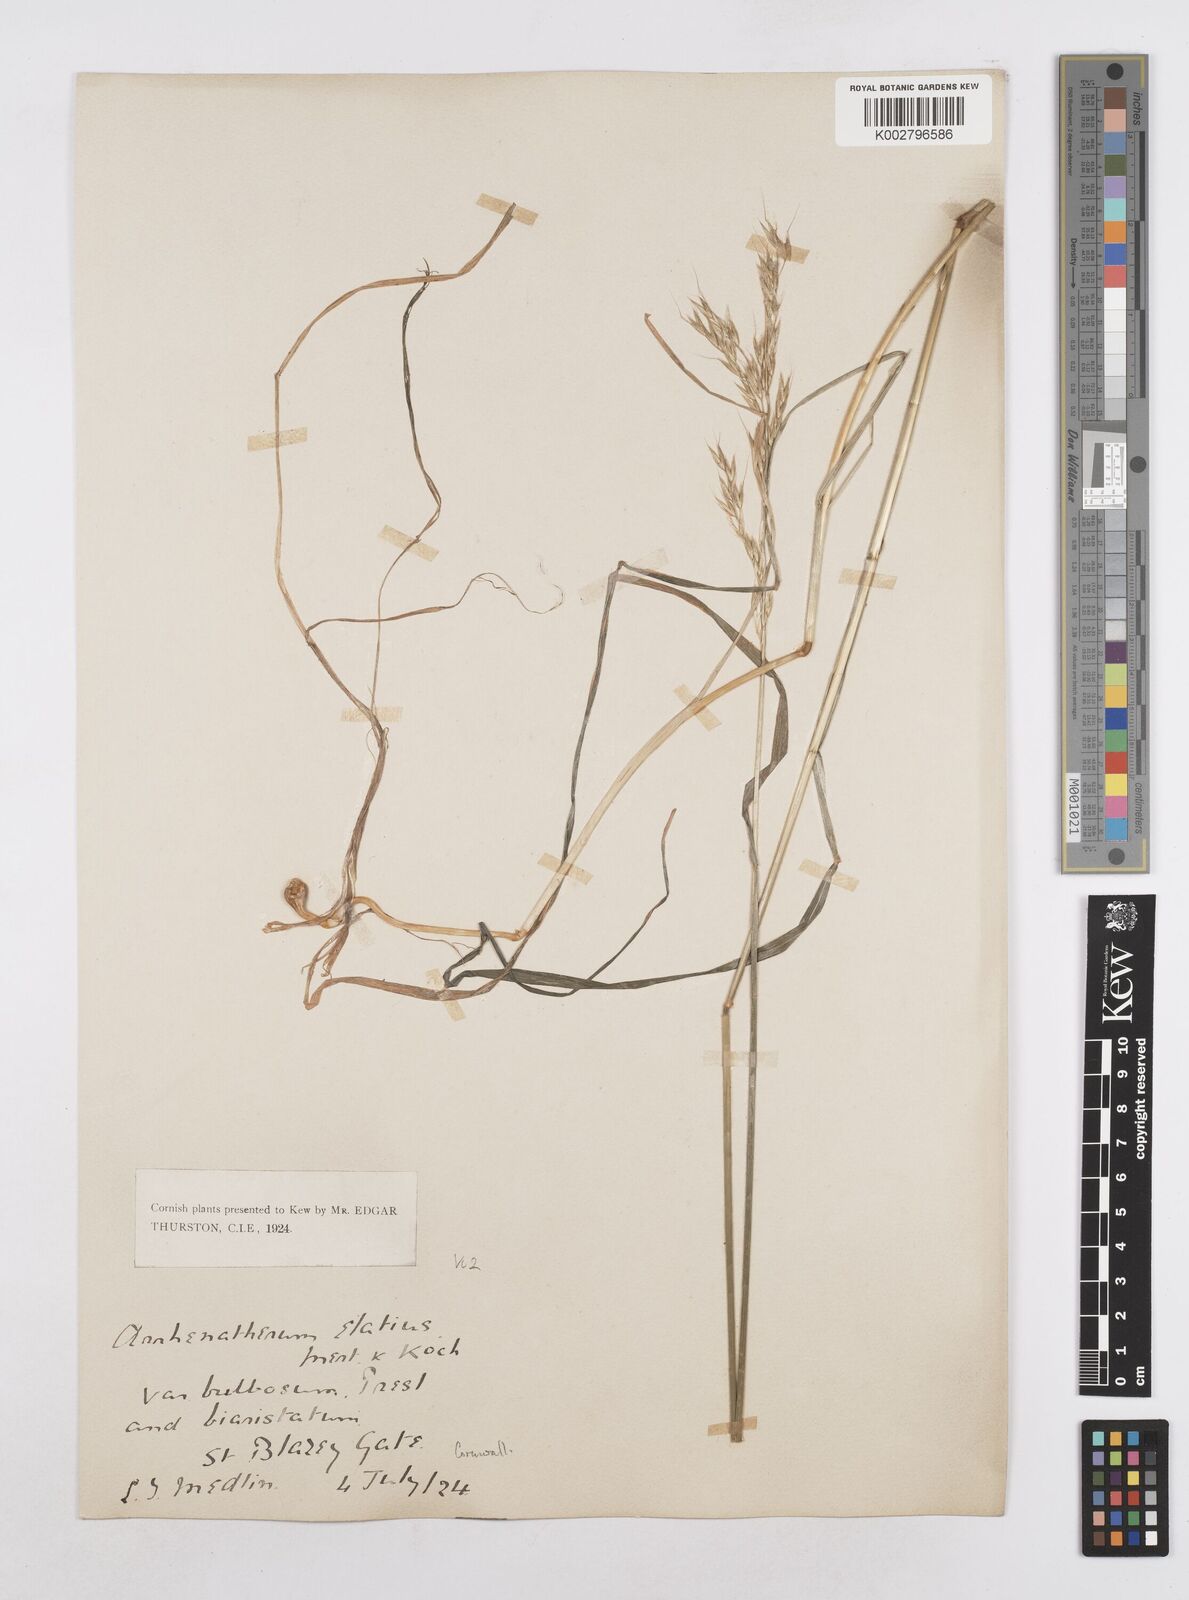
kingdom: Plantae
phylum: Tracheophyta
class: Liliopsida
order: Poales
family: Poaceae
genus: Arrhenatherum
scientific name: Arrhenatherum elatius
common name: Tall oatgrass
